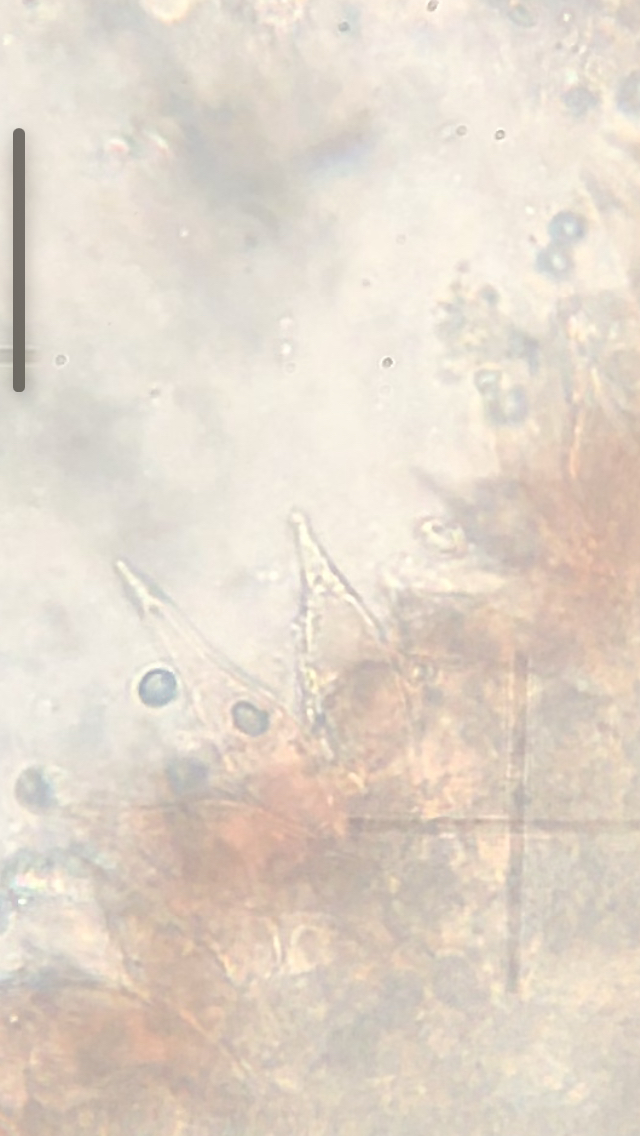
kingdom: Fungi
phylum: Basidiomycota
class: Agaricomycetes
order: Agaricales
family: Mycenaceae
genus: Mycena
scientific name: Mycena sanguinolenta
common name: rødmælket huesvamp
